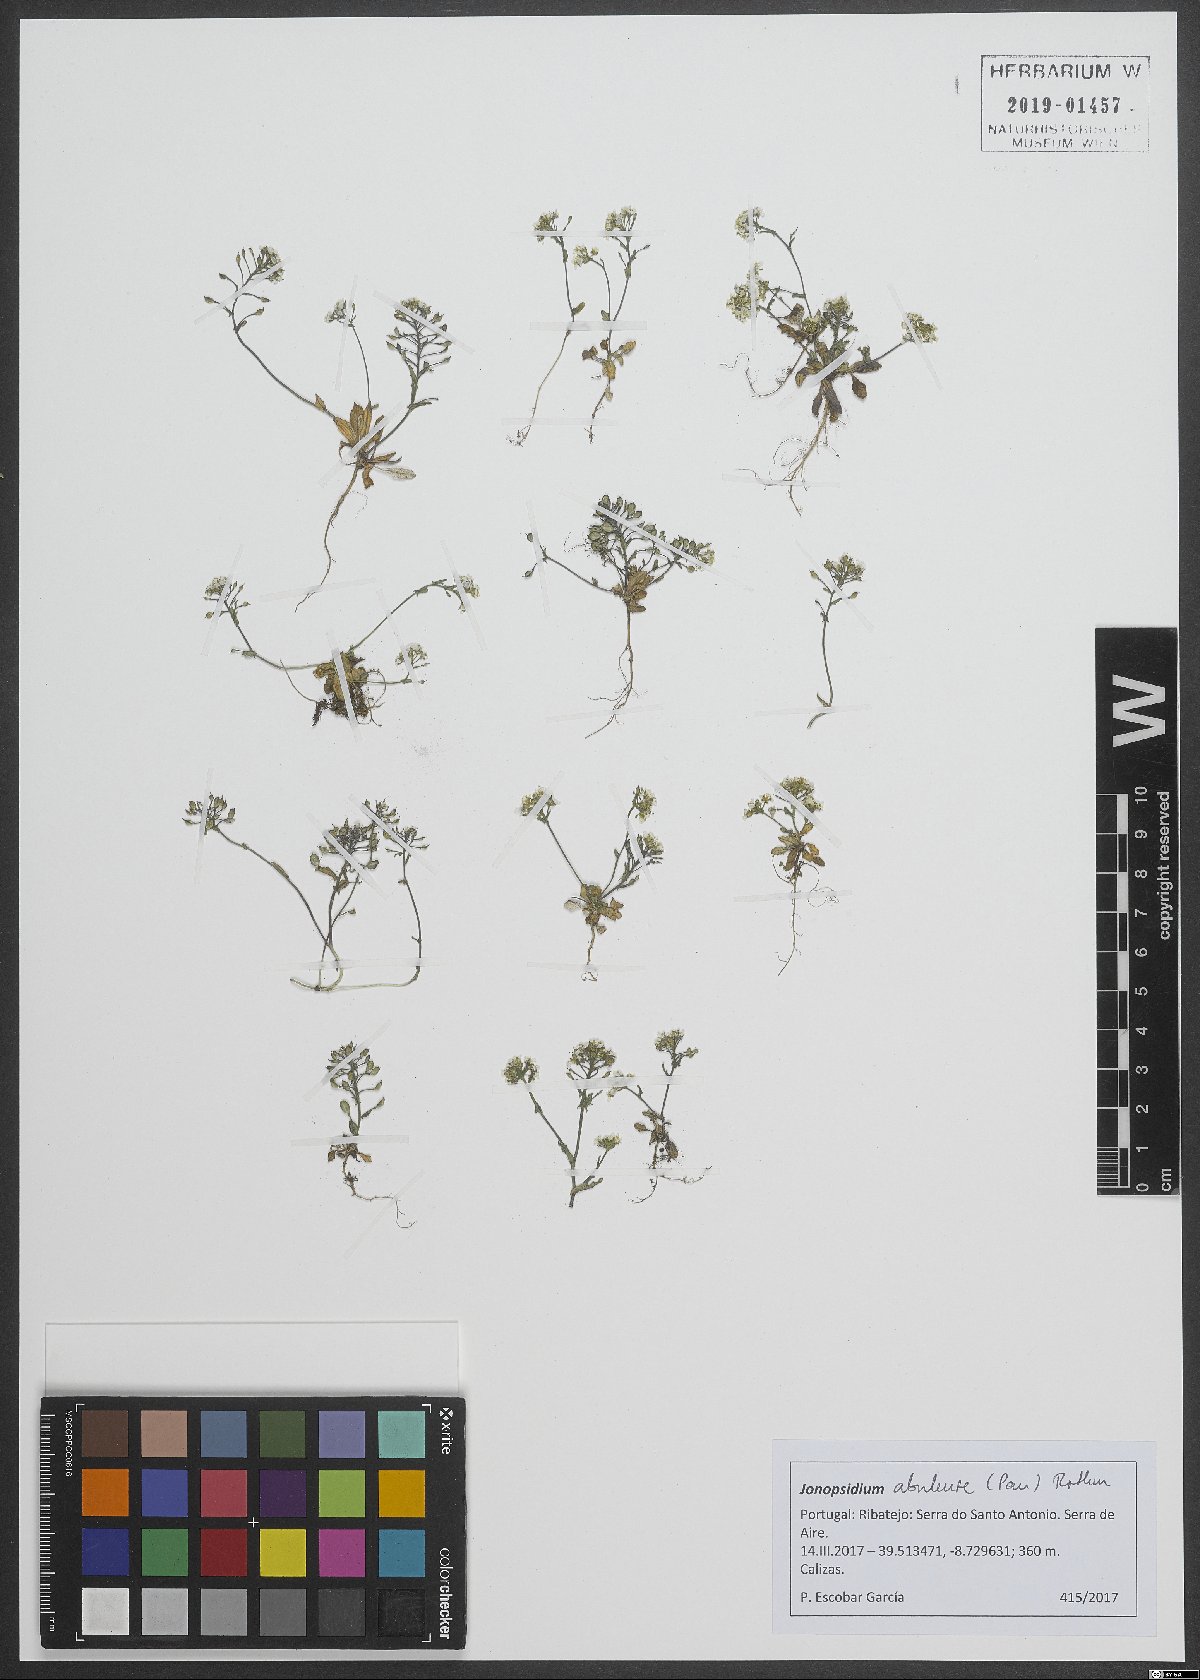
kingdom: Plantae
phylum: Tracheophyta
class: Magnoliopsida
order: Brassicales
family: Brassicaceae
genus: Ionopsidium
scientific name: Ionopsidium abulense
